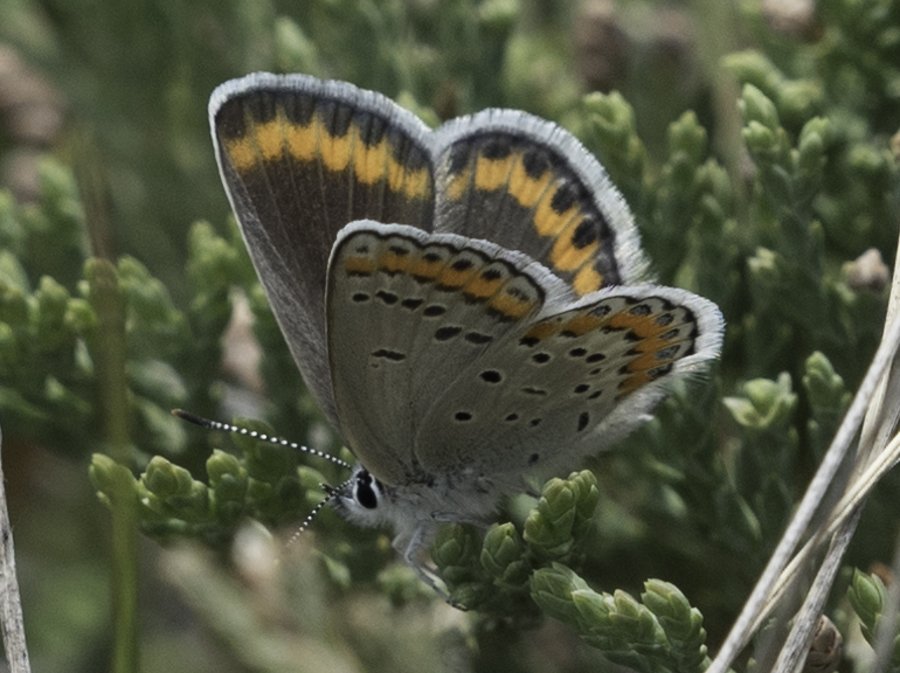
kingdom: Animalia
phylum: Arthropoda
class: Insecta
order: Lepidoptera
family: Lycaenidae
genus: Lycaeides
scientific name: Lycaeides melissa
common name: Melissa Blue
